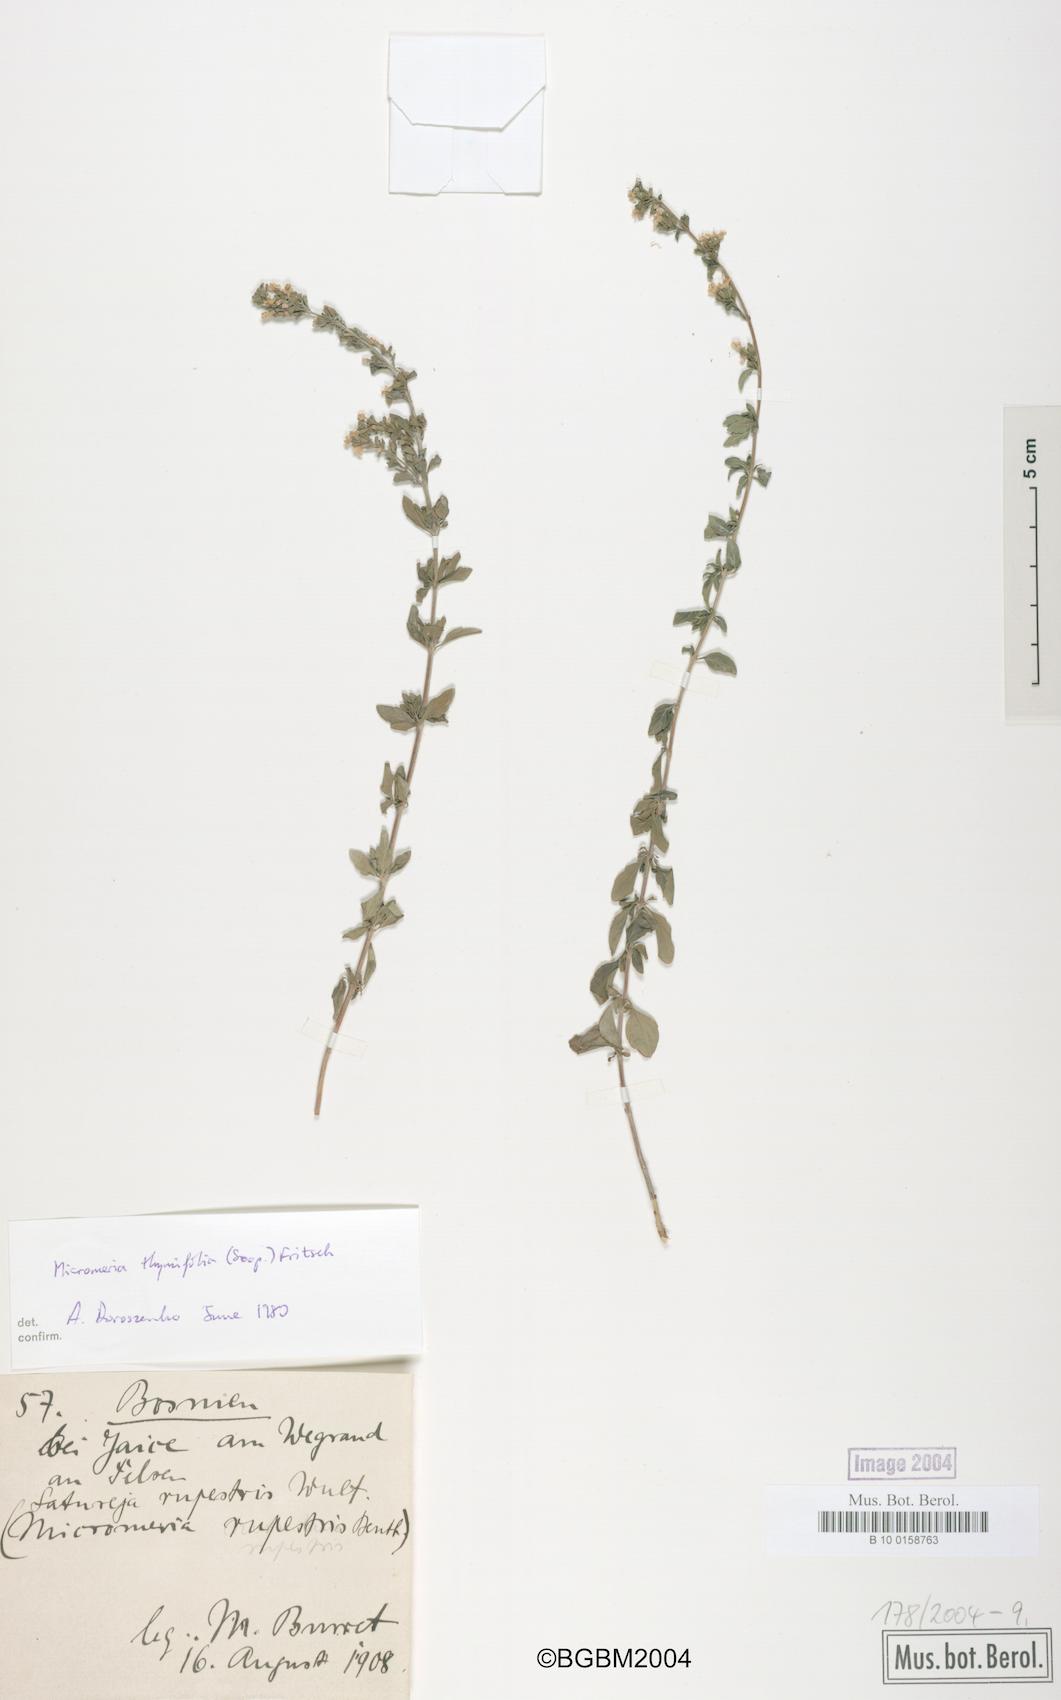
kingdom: Plantae
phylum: Tracheophyta
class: Magnoliopsida
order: Lamiales
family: Lamiaceae
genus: Clinopodium
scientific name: Clinopodium hostii
